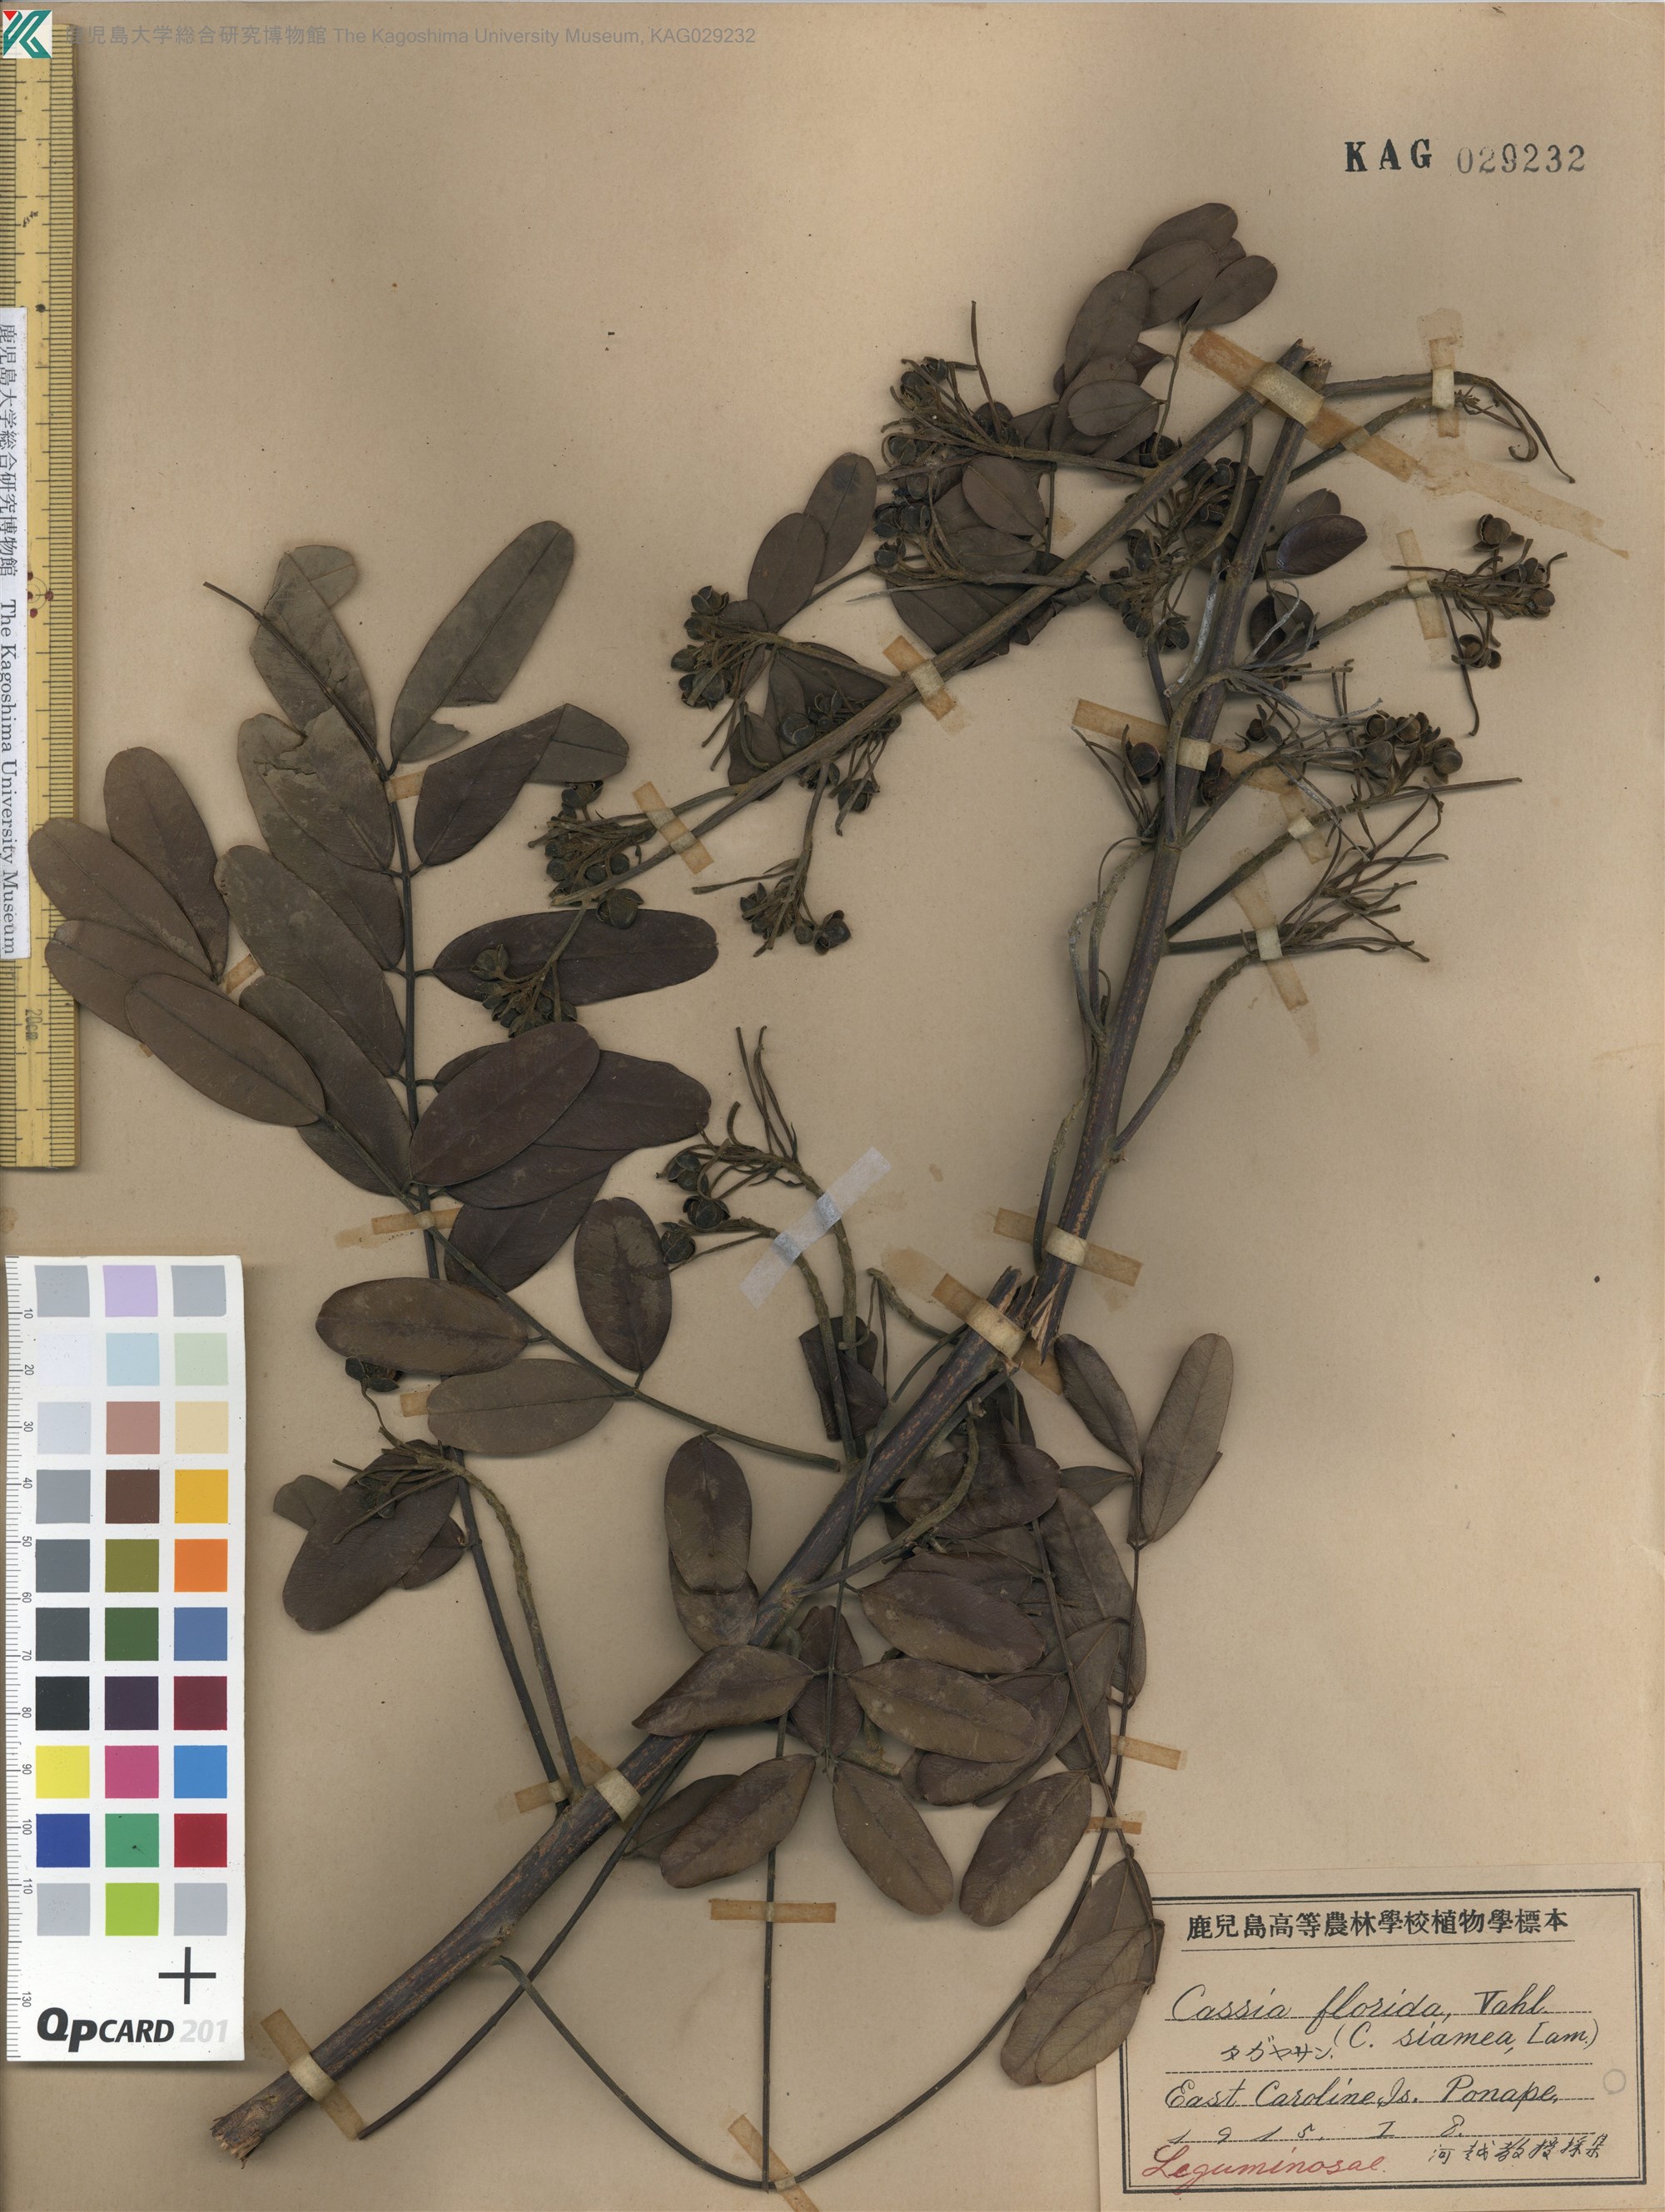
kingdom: Plantae
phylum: Tracheophyta
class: Magnoliopsida
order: Fabales
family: Fabaceae
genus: Senna
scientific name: Senna siamea
